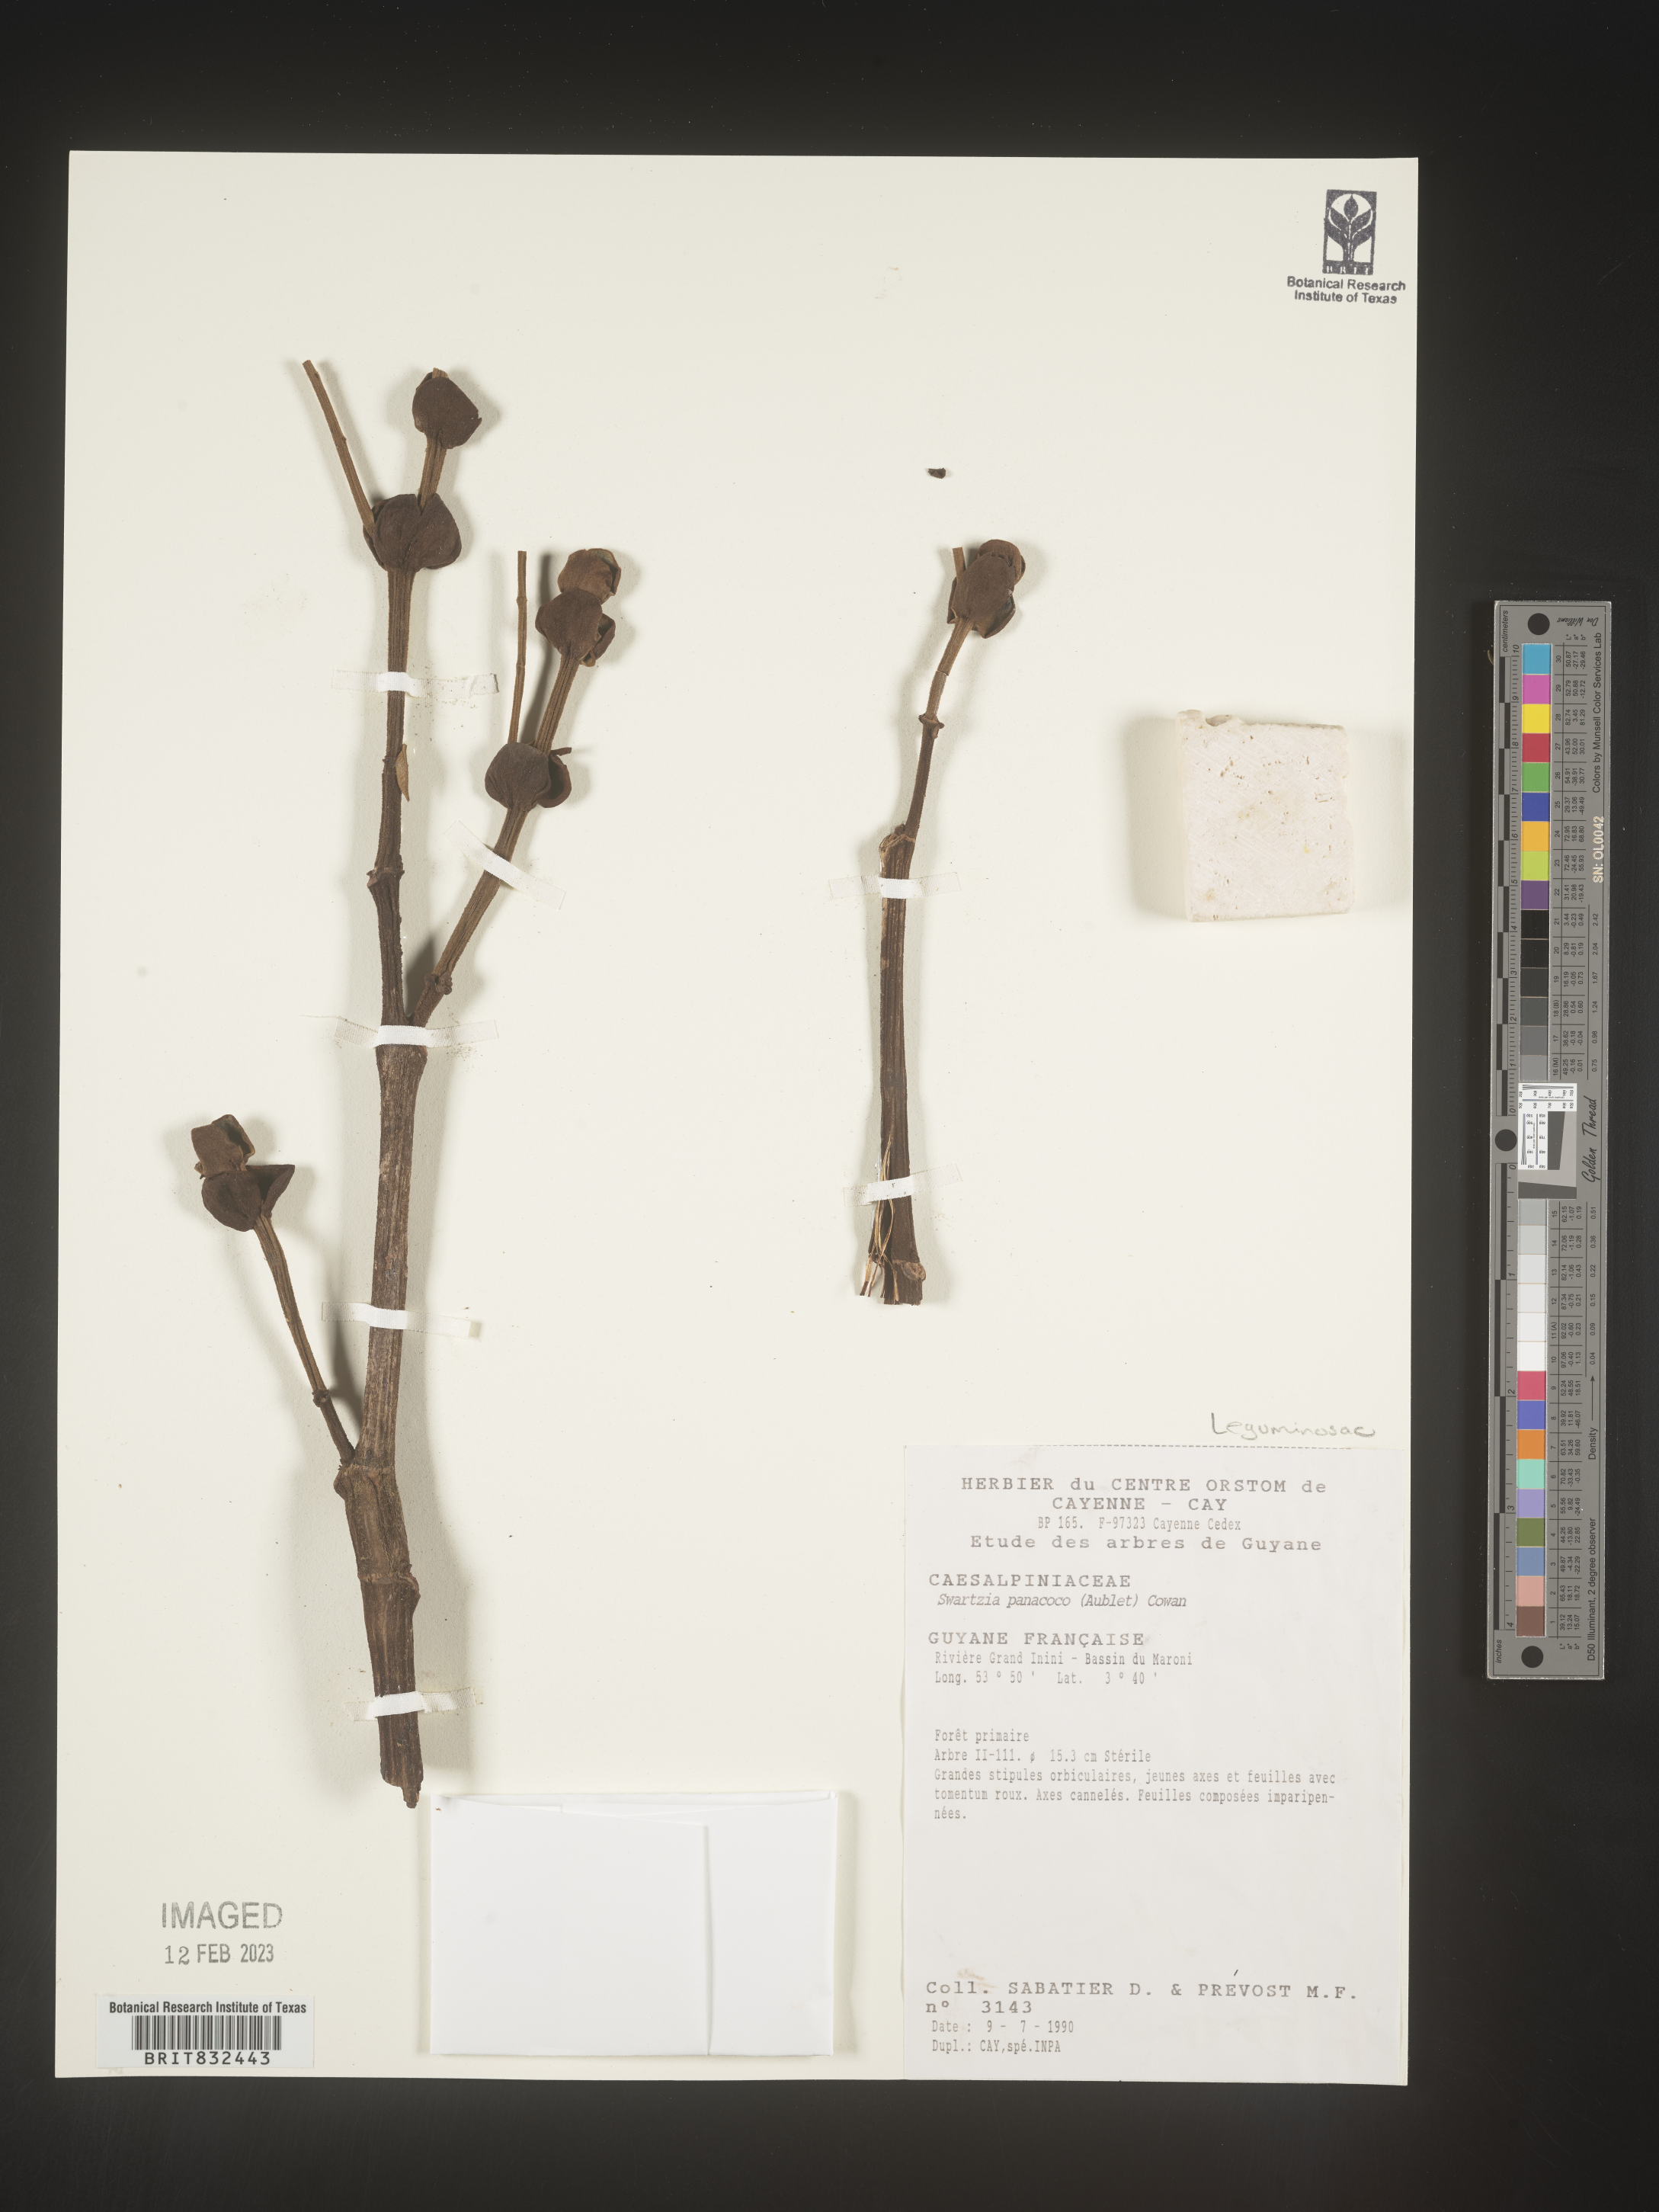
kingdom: Plantae
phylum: Tracheophyta
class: Magnoliopsida
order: Fabales
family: Fabaceae
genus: Swartzia
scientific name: Swartzia
